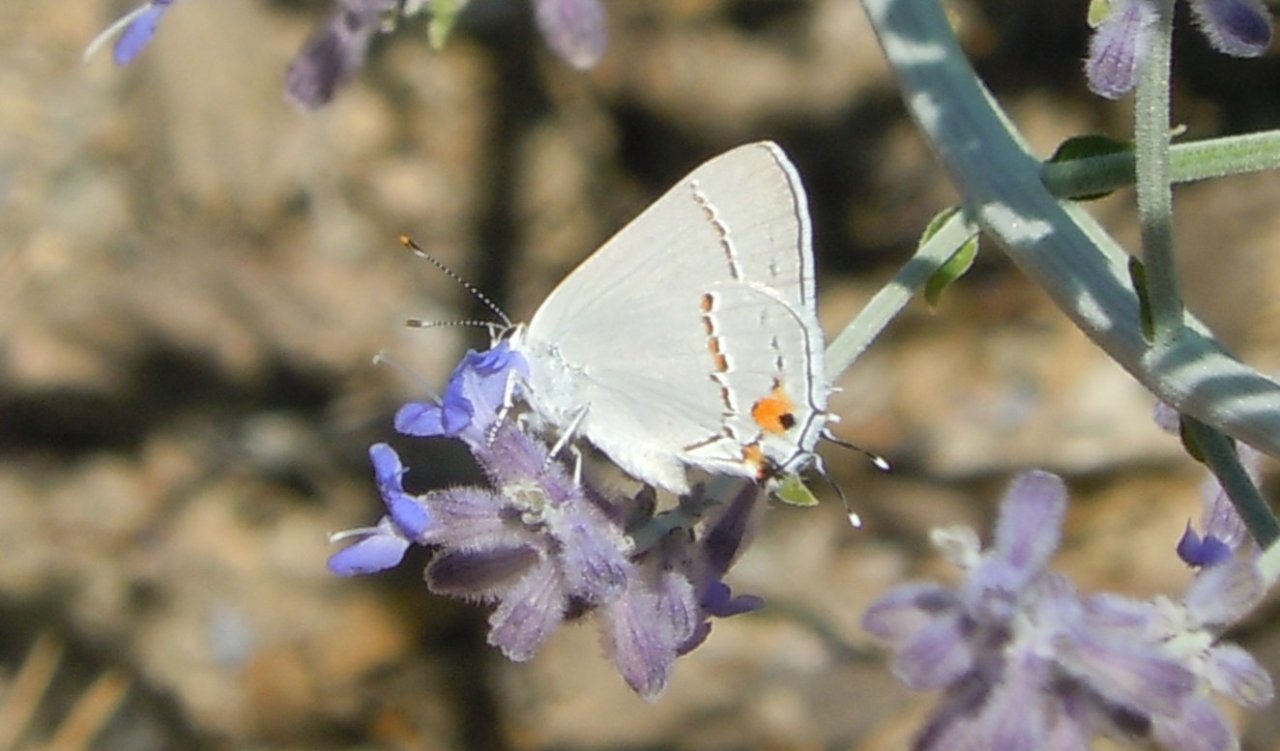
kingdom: Animalia
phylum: Arthropoda
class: Insecta
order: Lepidoptera
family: Lycaenidae
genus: Strymon
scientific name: Strymon melinus
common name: Gray Hairstreak
